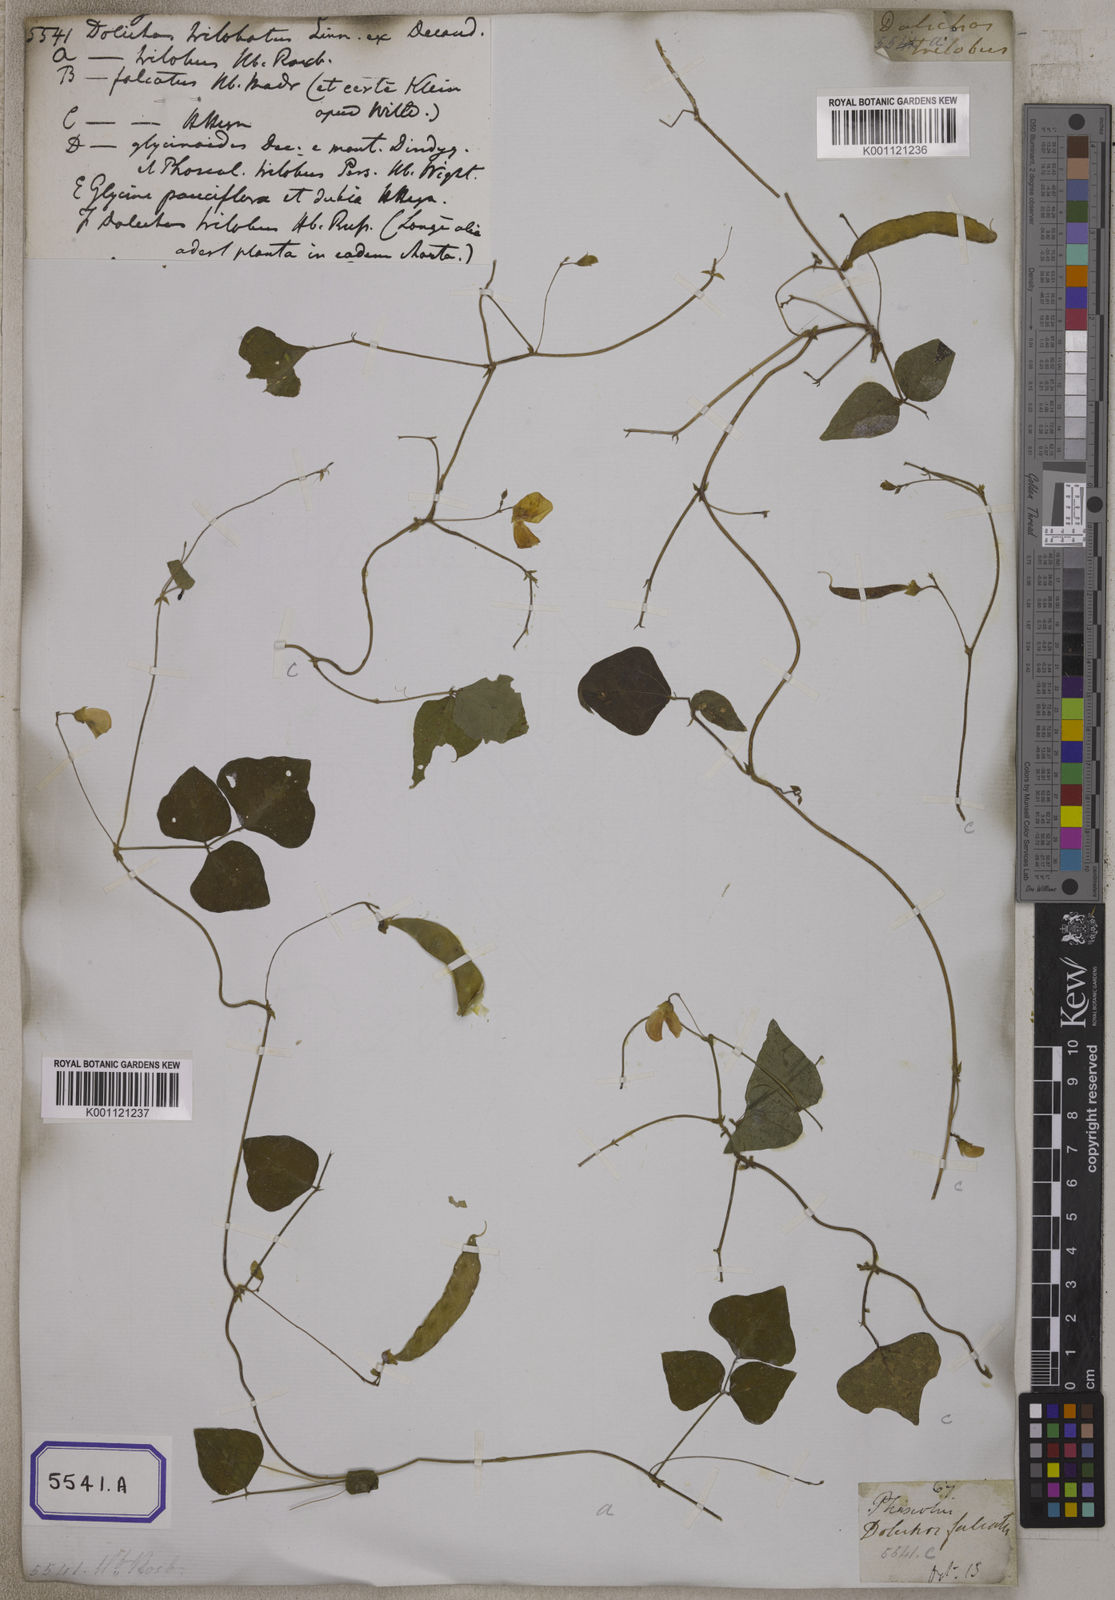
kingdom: Plantae
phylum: Tracheophyta
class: Magnoliopsida
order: Fabales
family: Fabaceae
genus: Dolichos
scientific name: Dolichos
